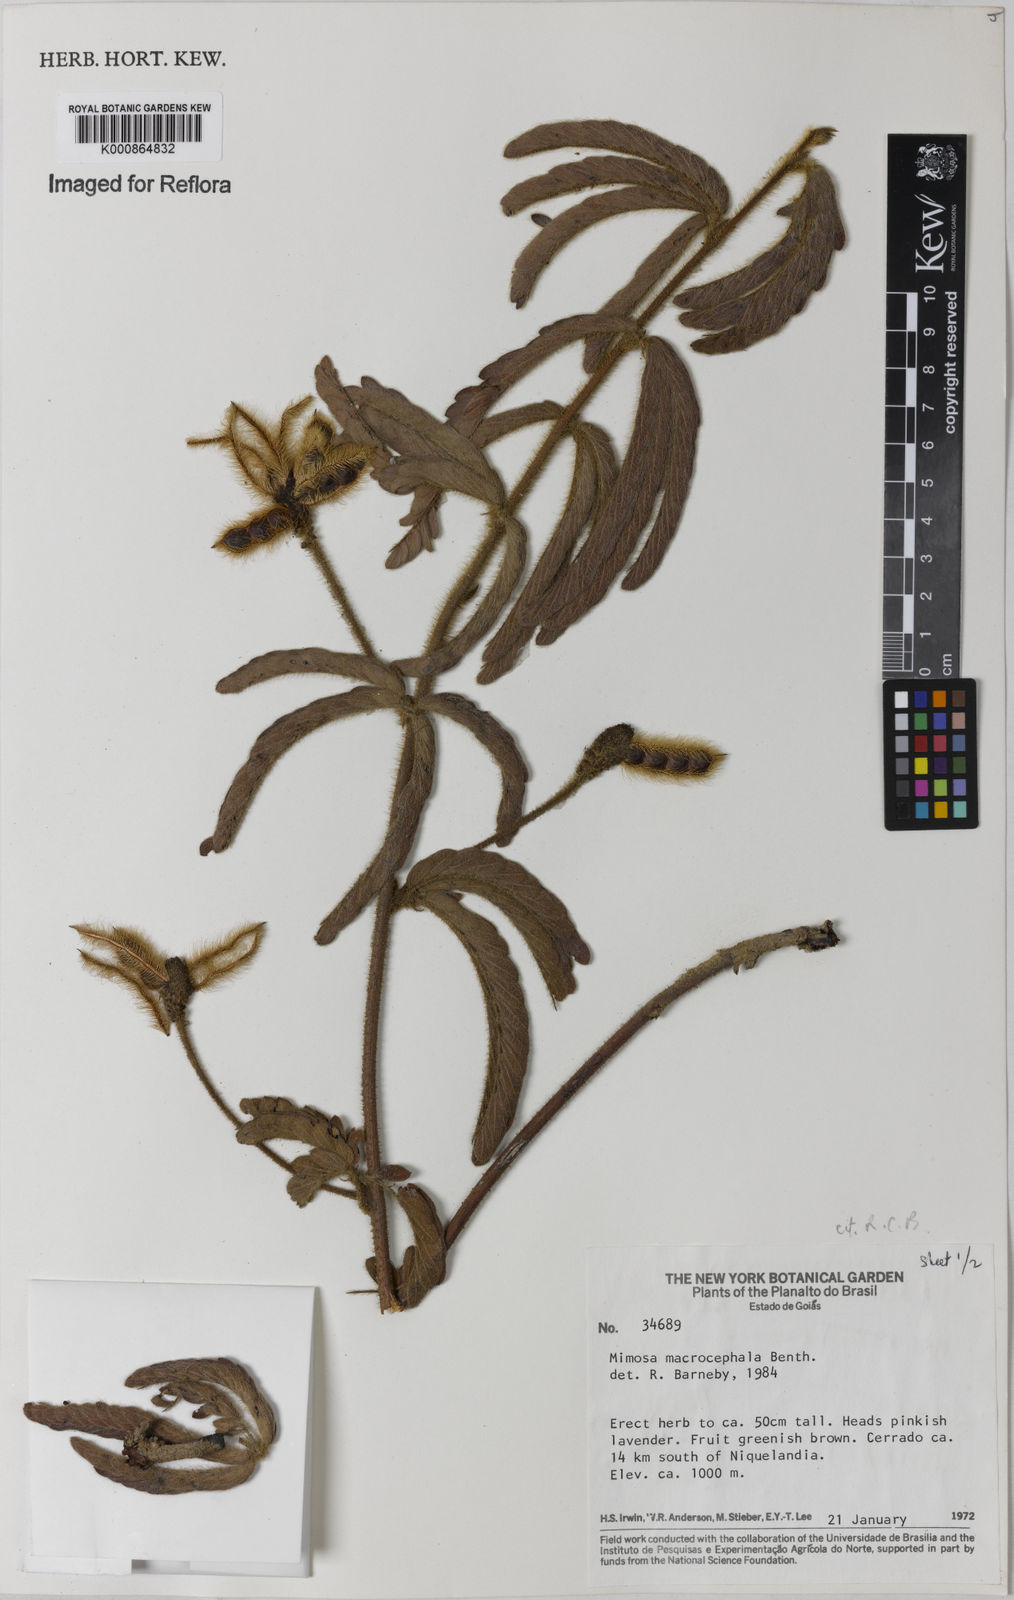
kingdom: Plantae
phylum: Tracheophyta
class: Magnoliopsida
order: Fabales
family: Fabaceae
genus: Mimosa
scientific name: Mimosa macrocephala
